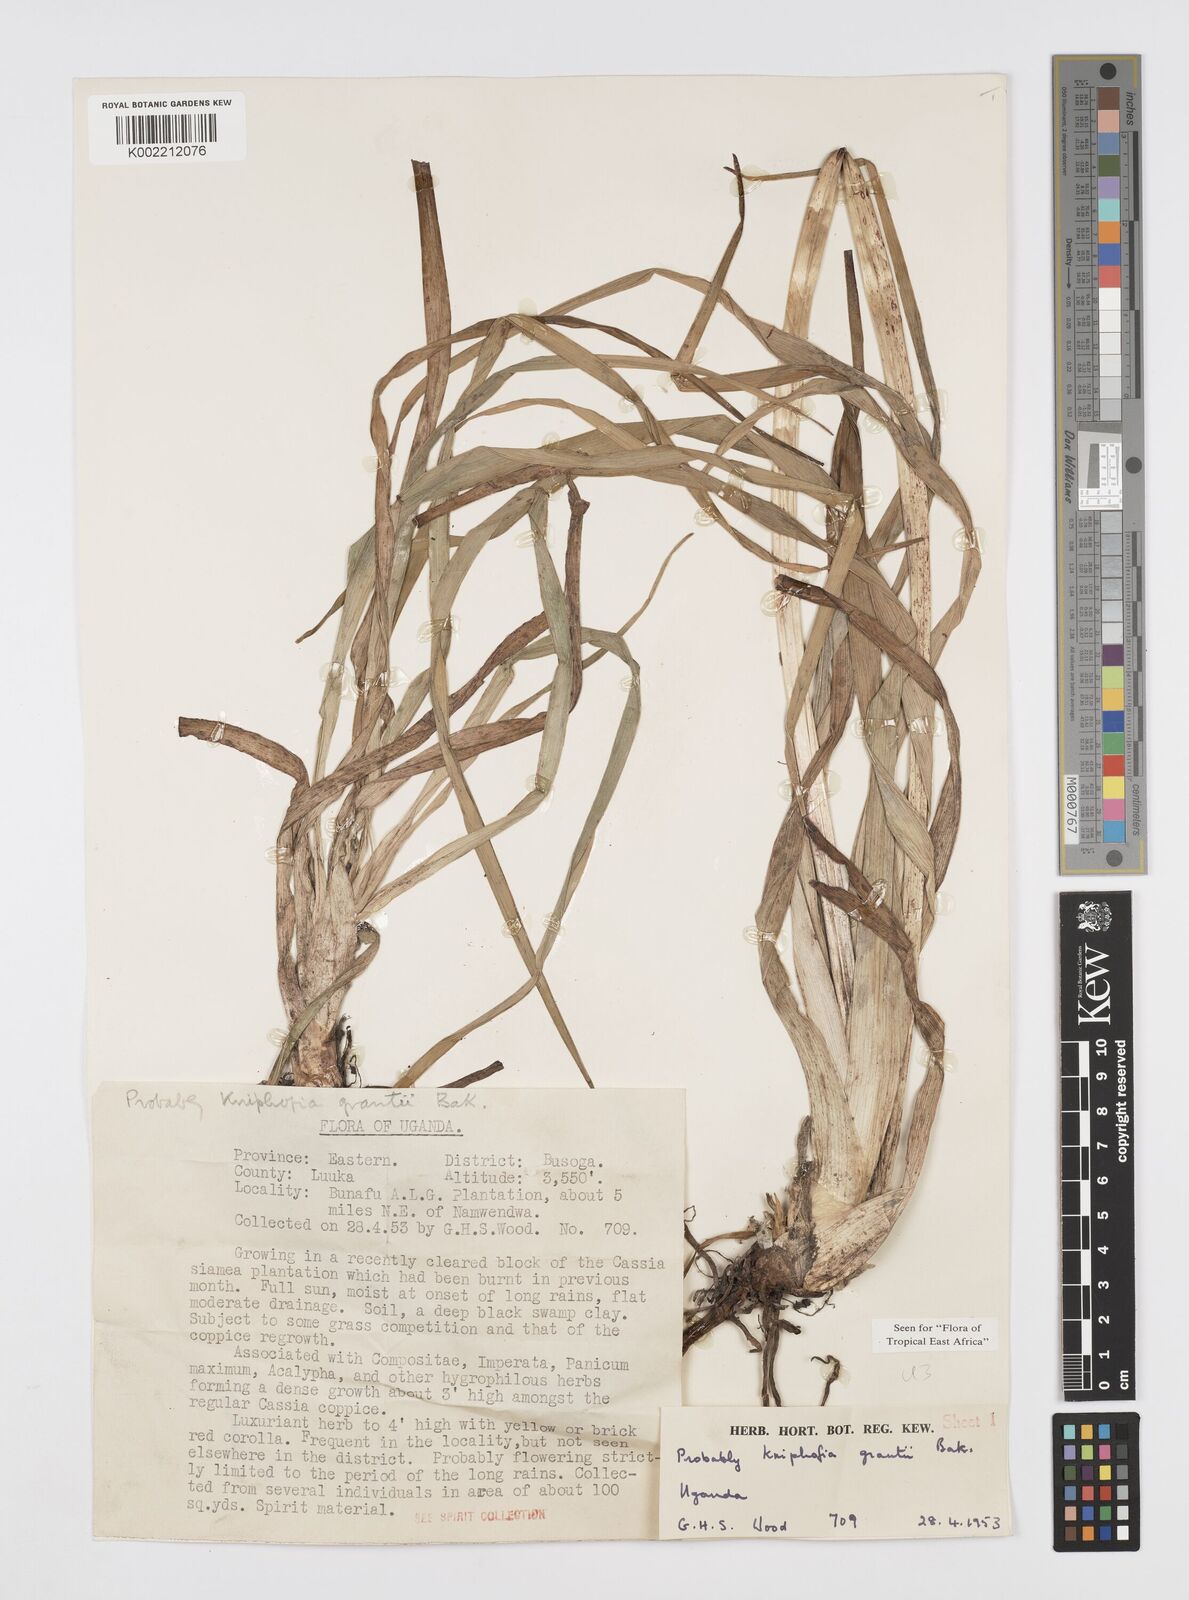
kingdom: Plantae
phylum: Tracheophyta
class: Liliopsida
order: Asparagales
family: Asphodelaceae
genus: Kniphofia
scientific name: Kniphofia grantii
